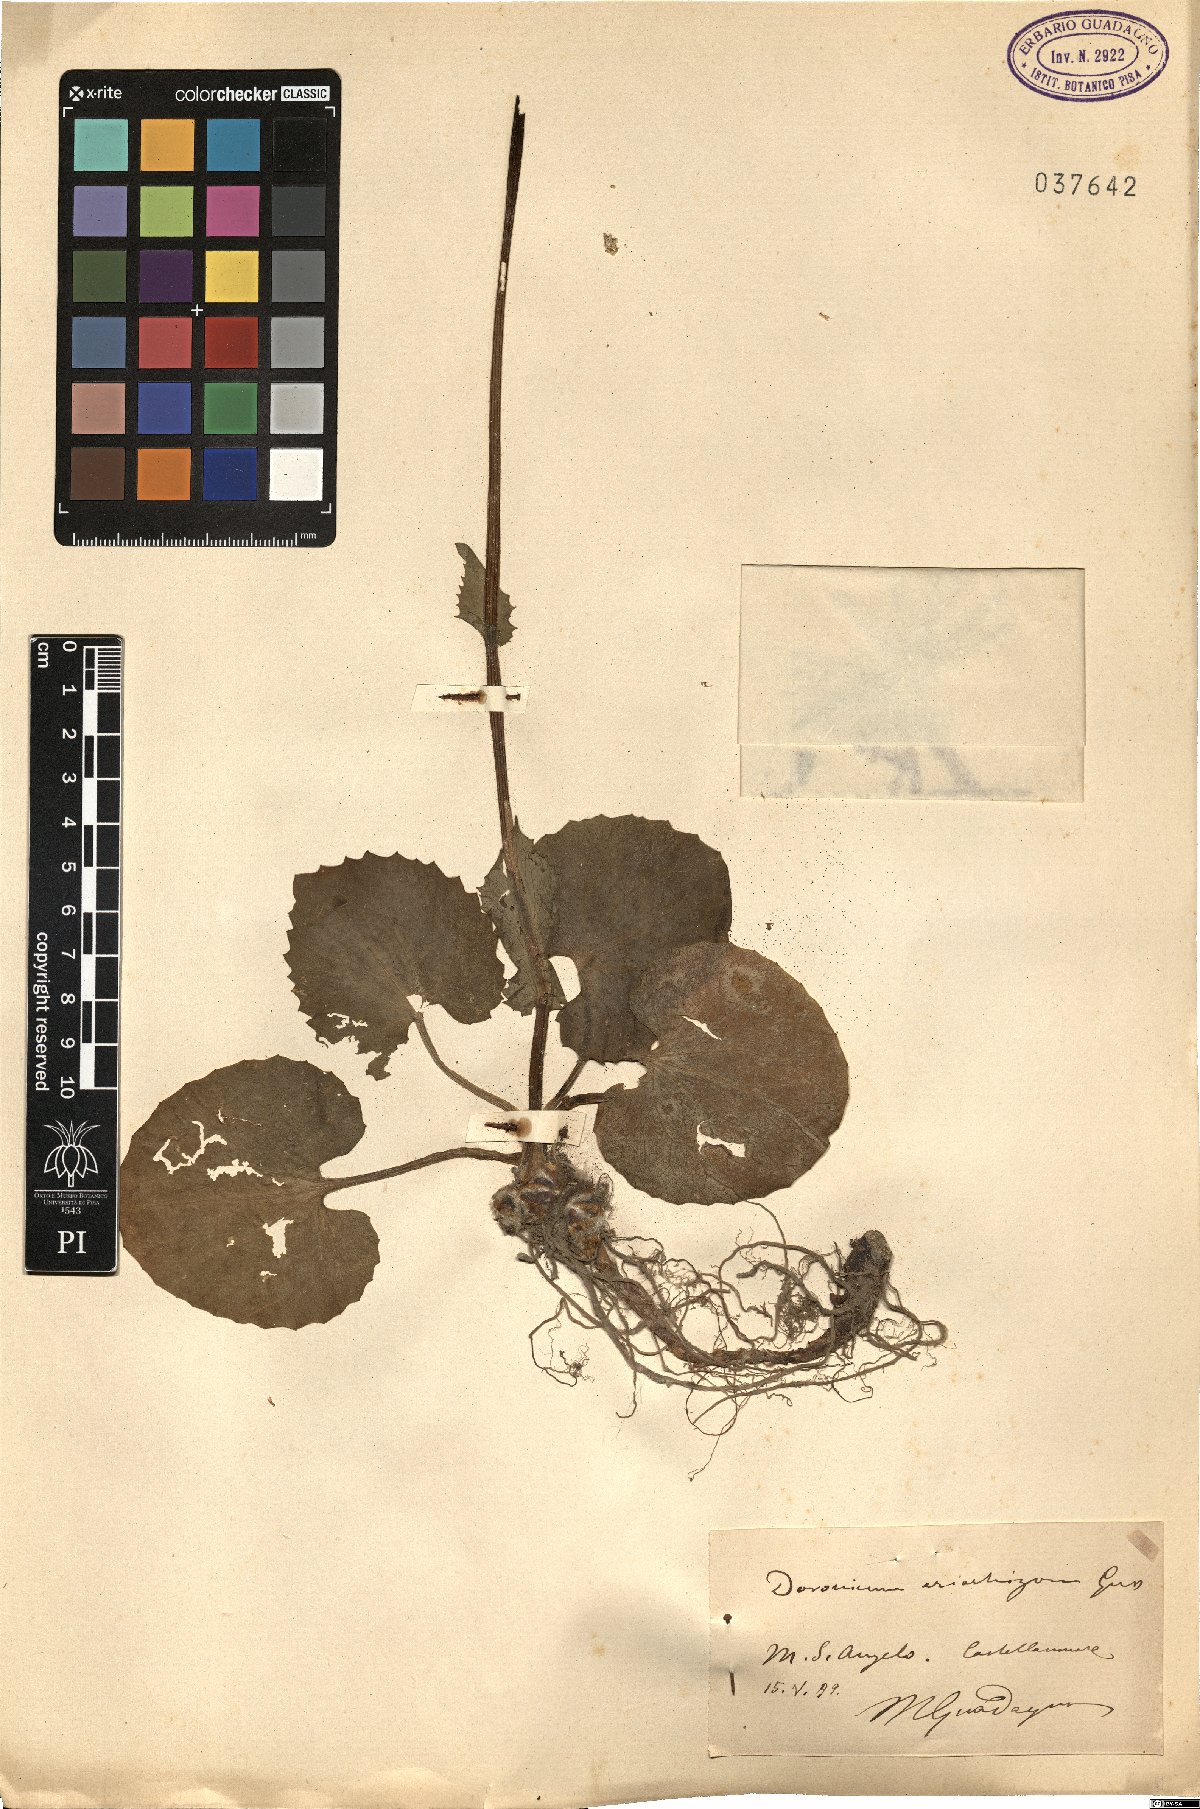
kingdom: Plantae
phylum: Tracheophyta
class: Magnoliopsida
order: Asterales
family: Asteraceae
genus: Doronicum
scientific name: Doronicum orientale
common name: Oriental leopard's-bane
